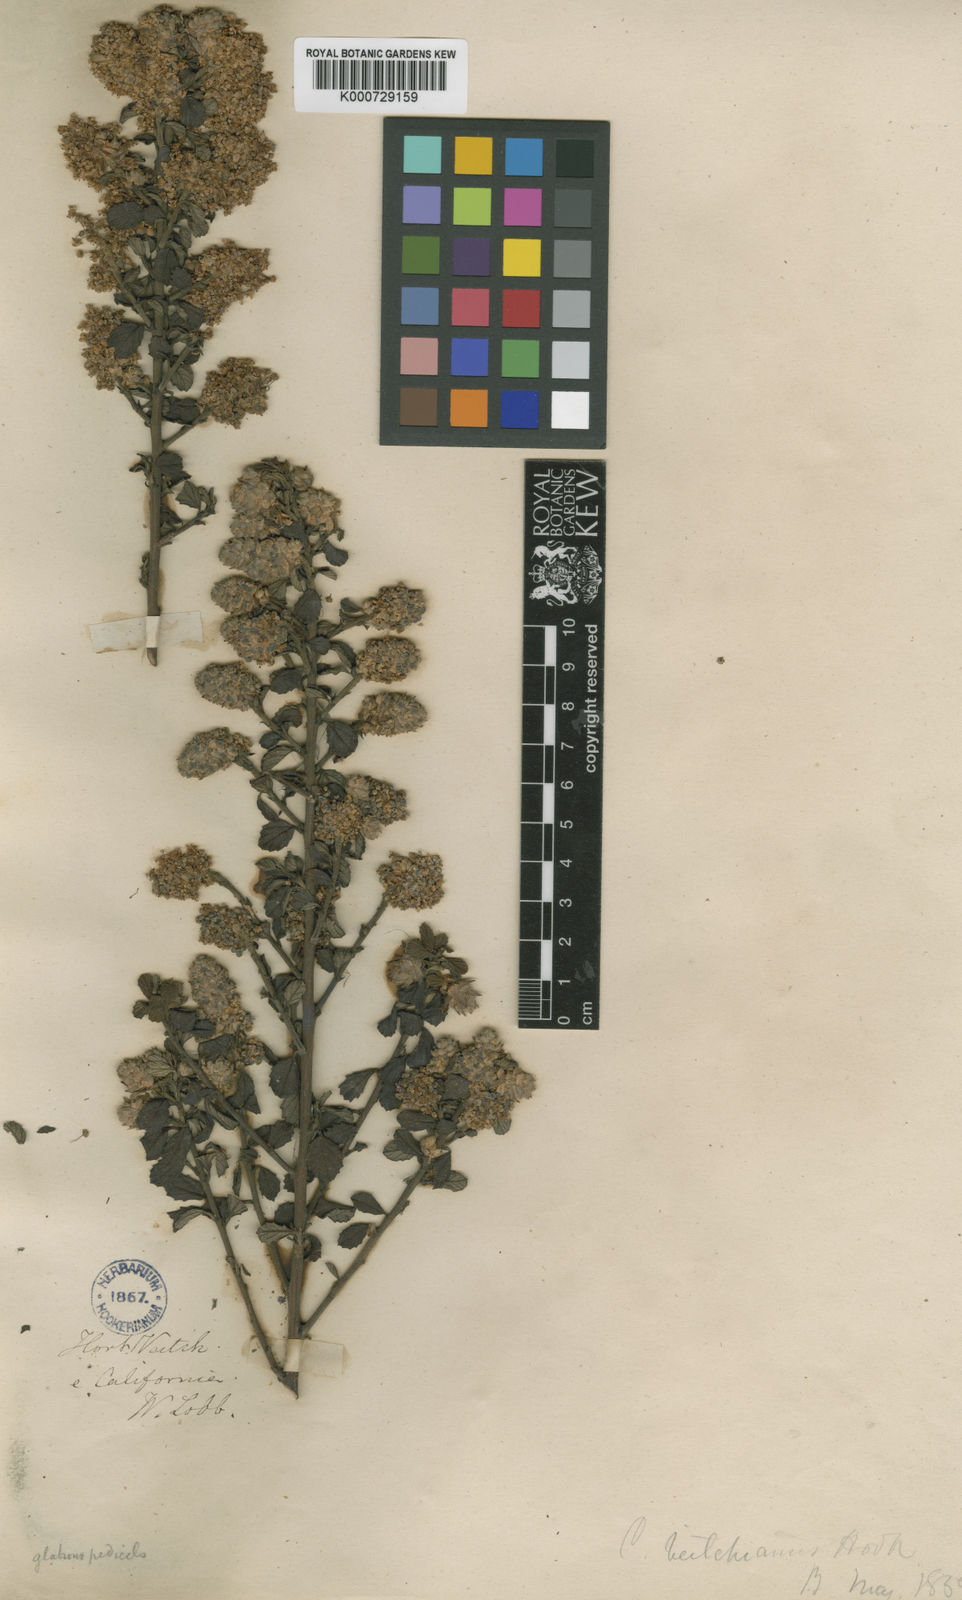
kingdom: Plantae
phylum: Tracheophyta
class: Magnoliopsida
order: Rosales
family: Rhamnaceae
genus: Ceanothus
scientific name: Ceanothus veitchianus
